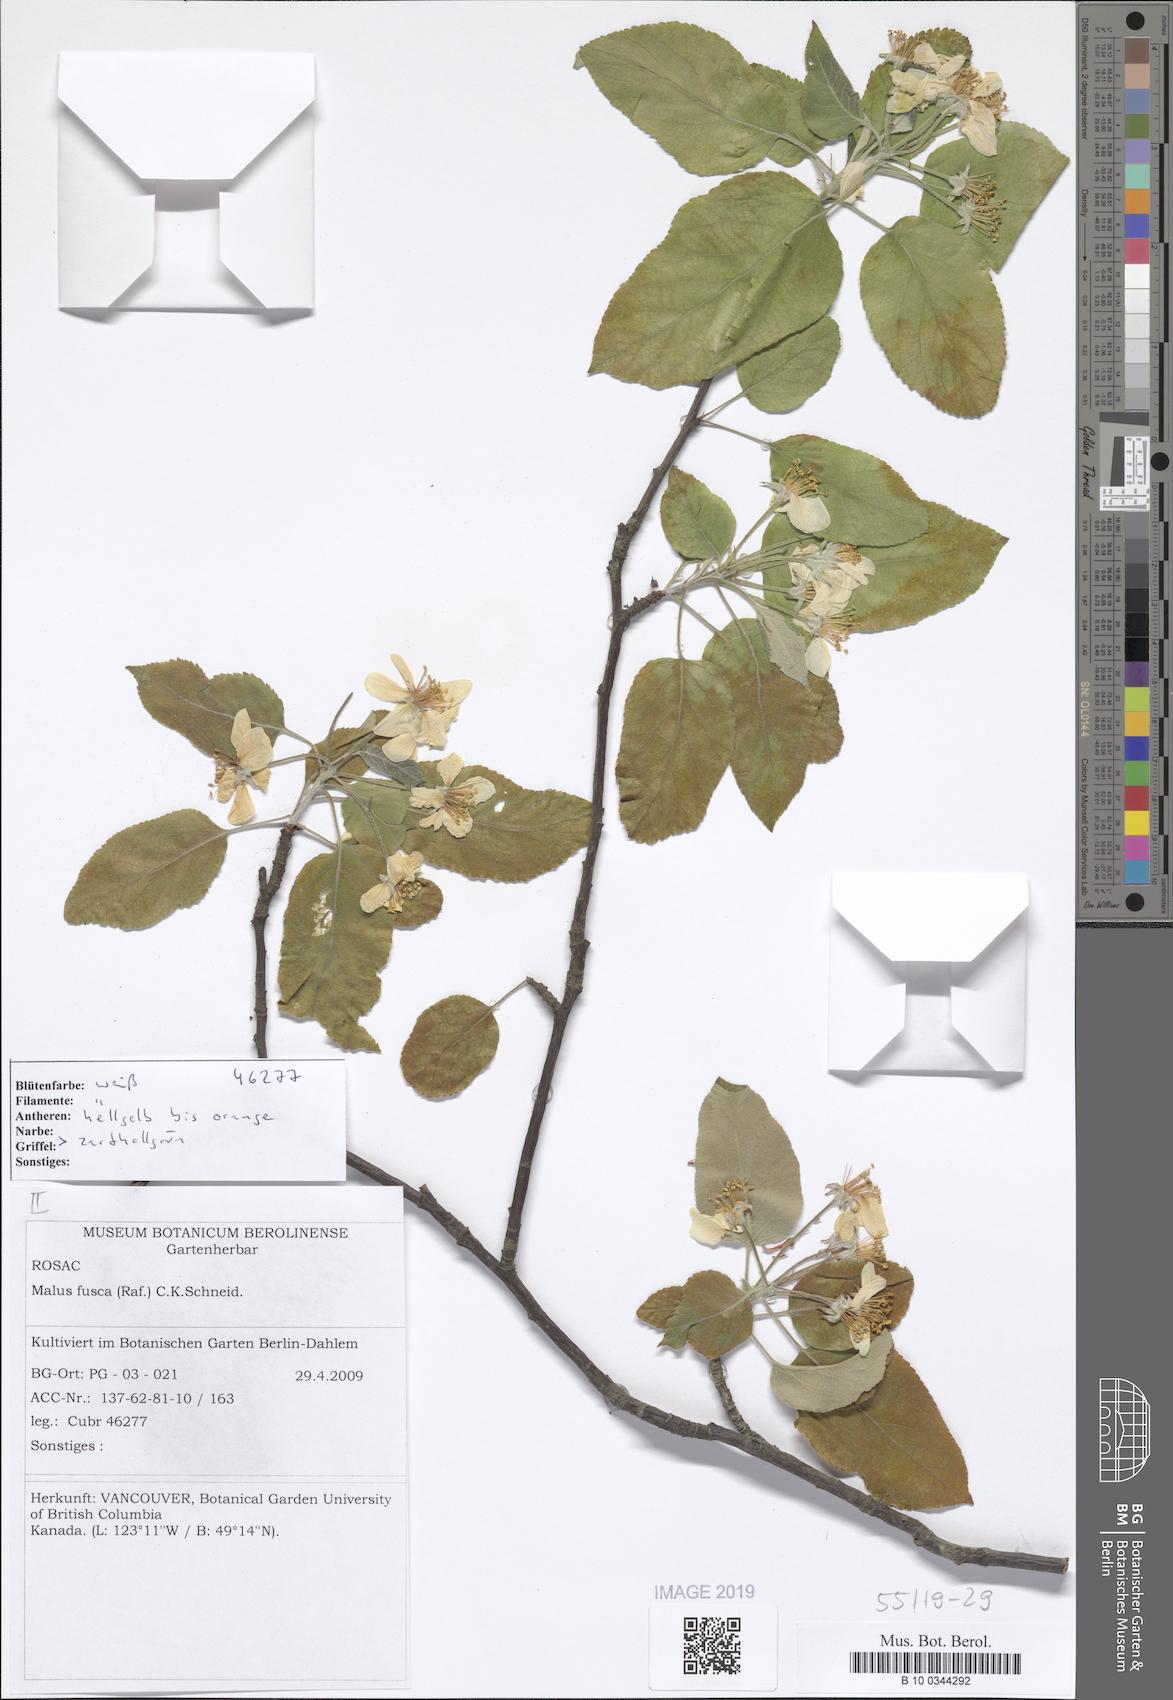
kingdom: Plantae
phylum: Tracheophyta
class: Magnoliopsida
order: Rosales
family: Rosaceae
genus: Malus
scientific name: Malus fusca
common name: Oregon crab apple
